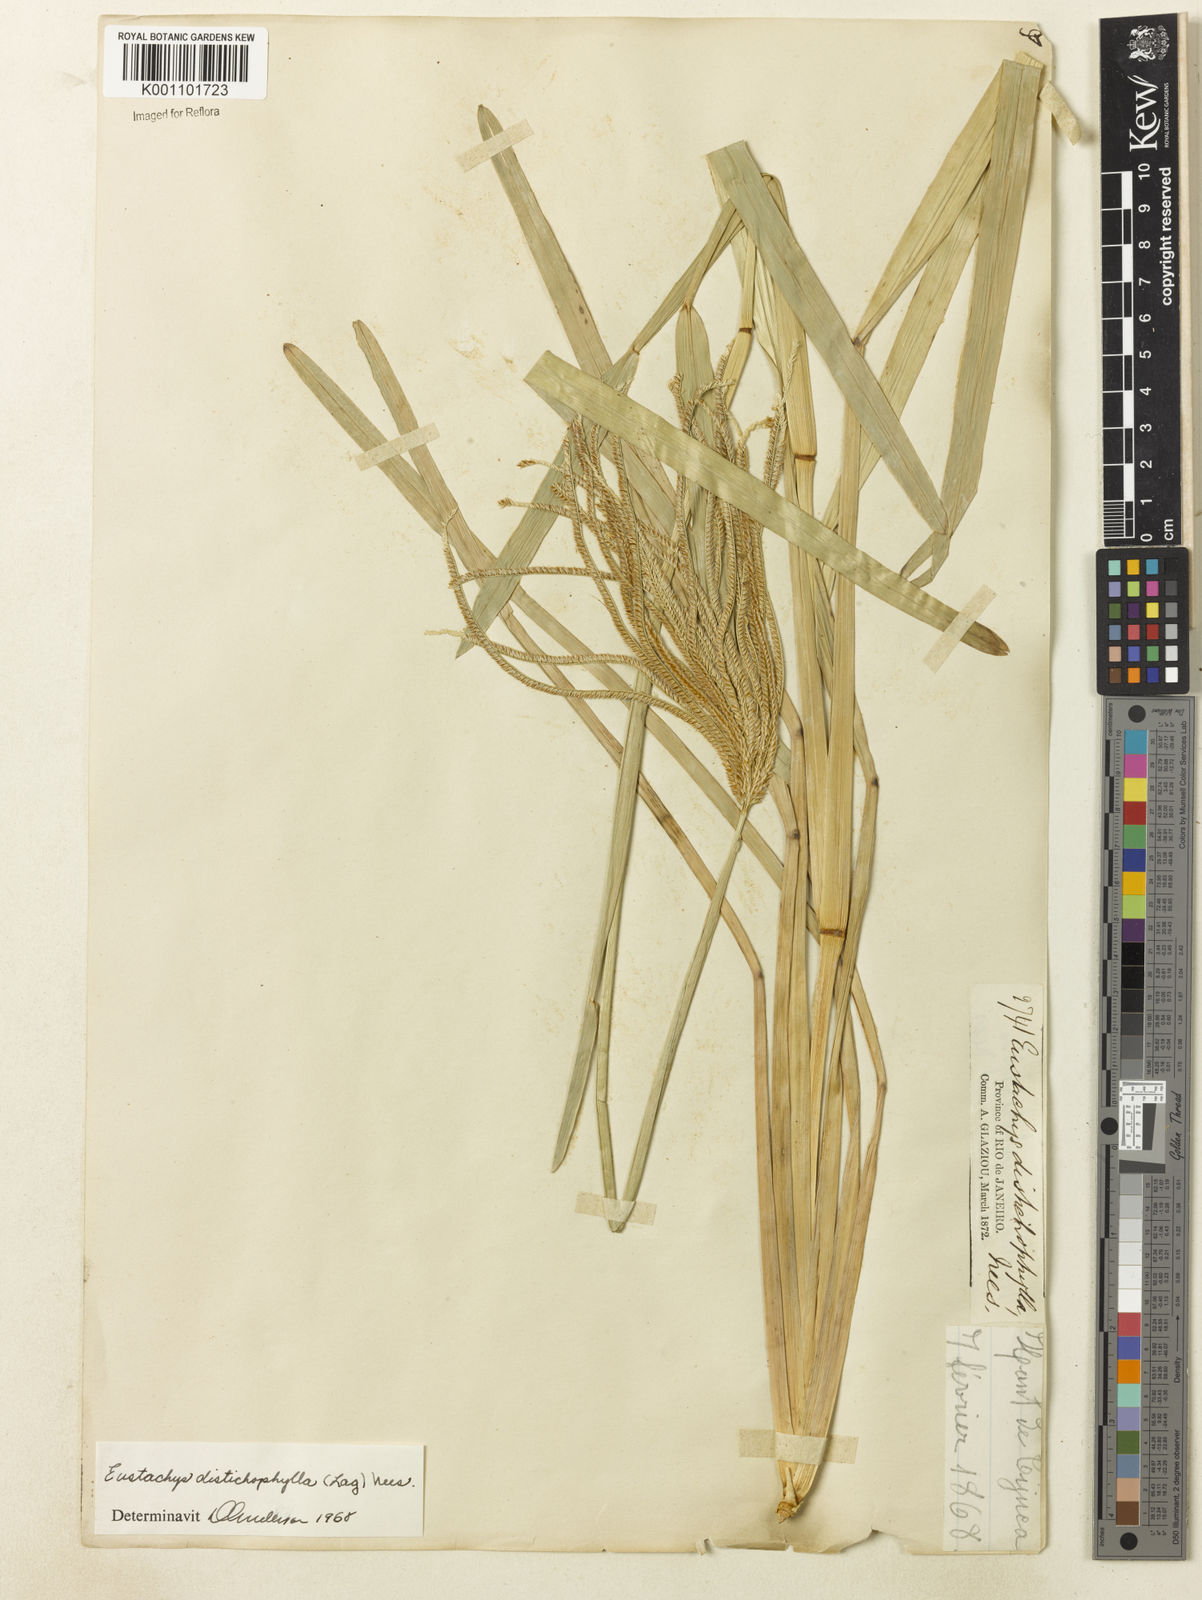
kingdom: Plantae
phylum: Tracheophyta
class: Liliopsida
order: Poales
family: Poaceae
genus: Eustachys
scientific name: Eustachys distichophylla
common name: Weeping fingergrass
